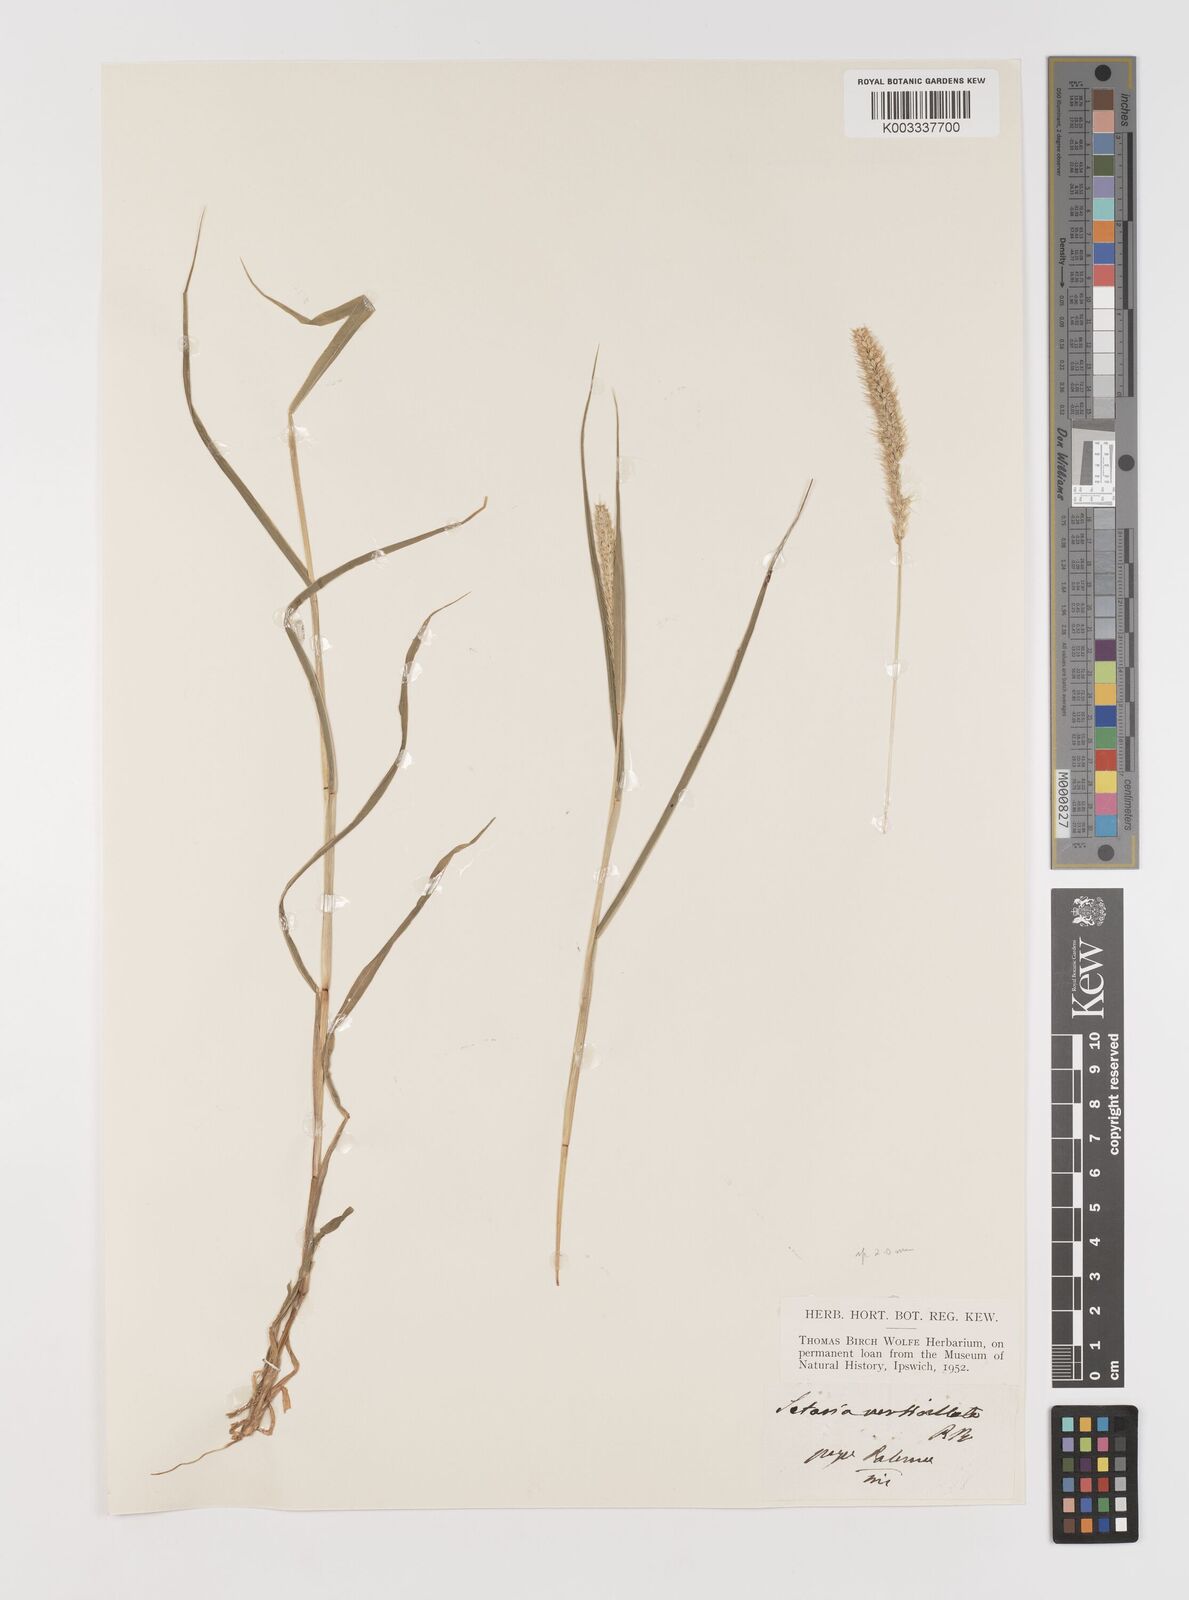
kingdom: Plantae
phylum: Tracheophyta
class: Liliopsida
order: Poales
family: Poaceae
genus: Setaria
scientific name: Setaria verticillata
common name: Hooked bristlegrass
